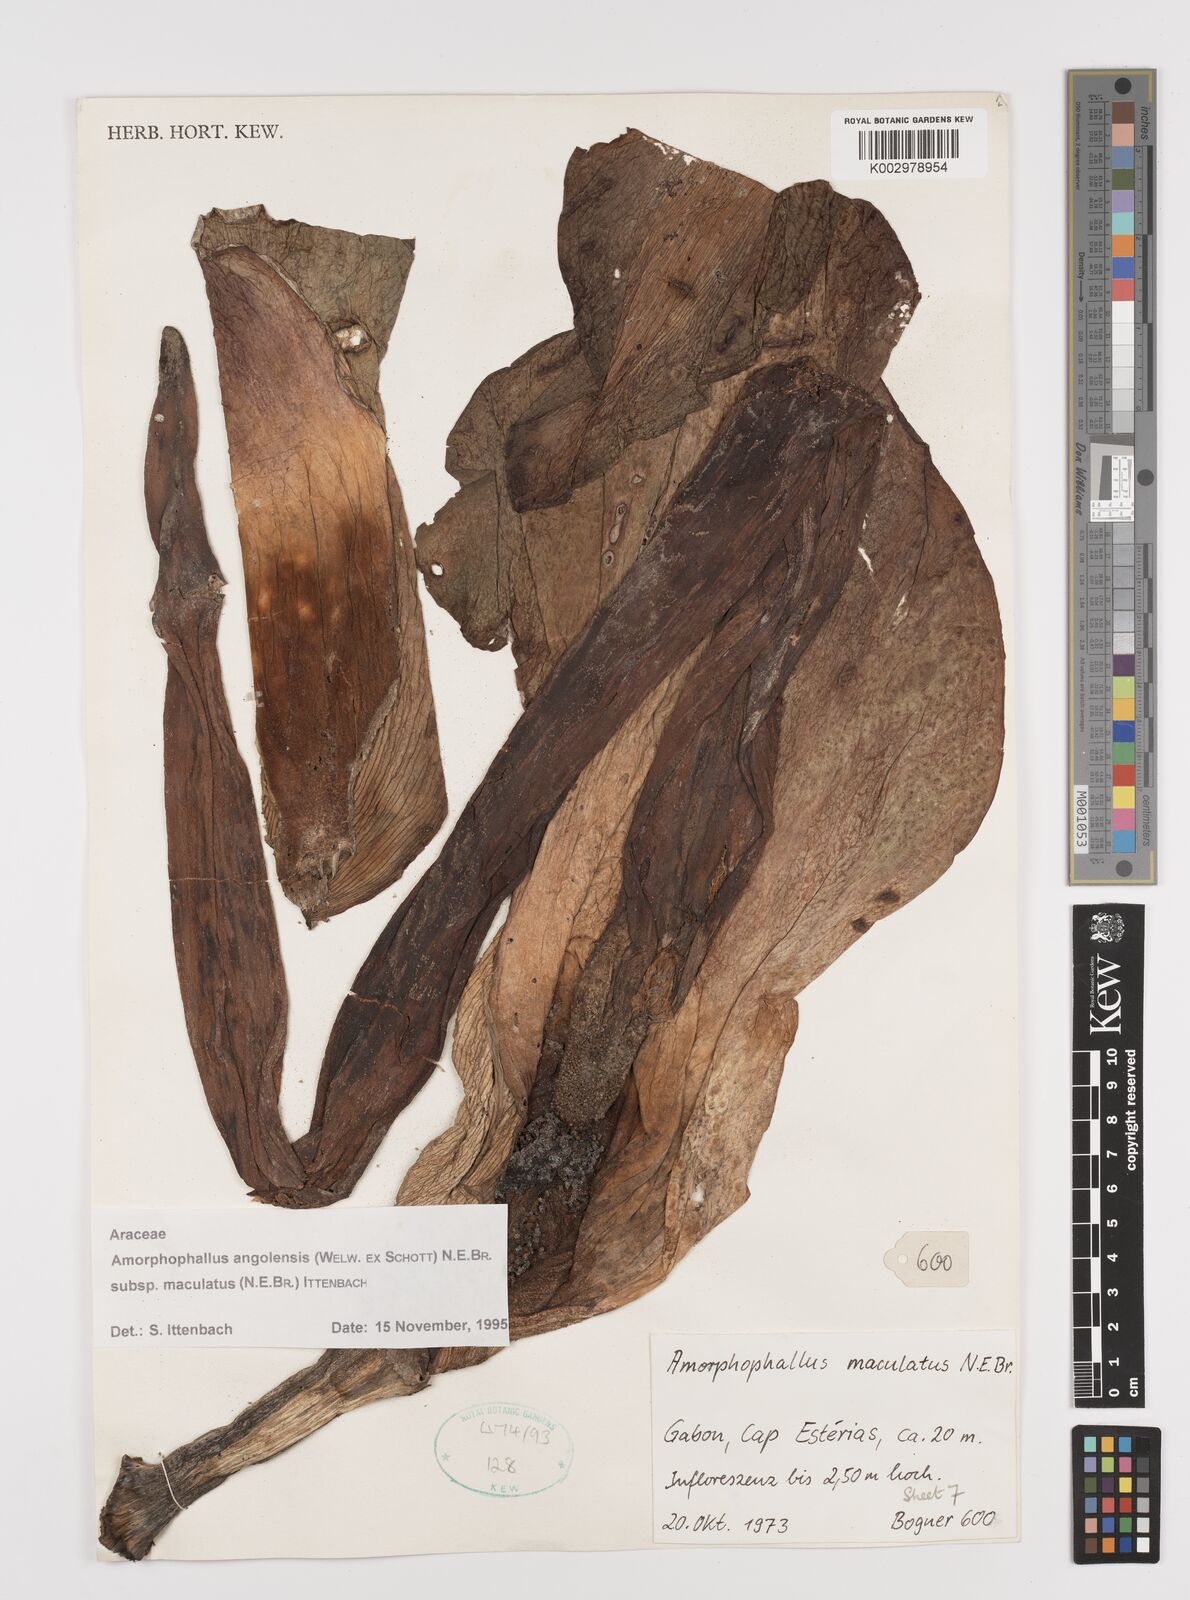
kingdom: Plantae
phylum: Tracheophyta
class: Liliopsida
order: Alismatales
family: Araceae
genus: Amorphophallus
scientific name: Amorphophallus angolensis
